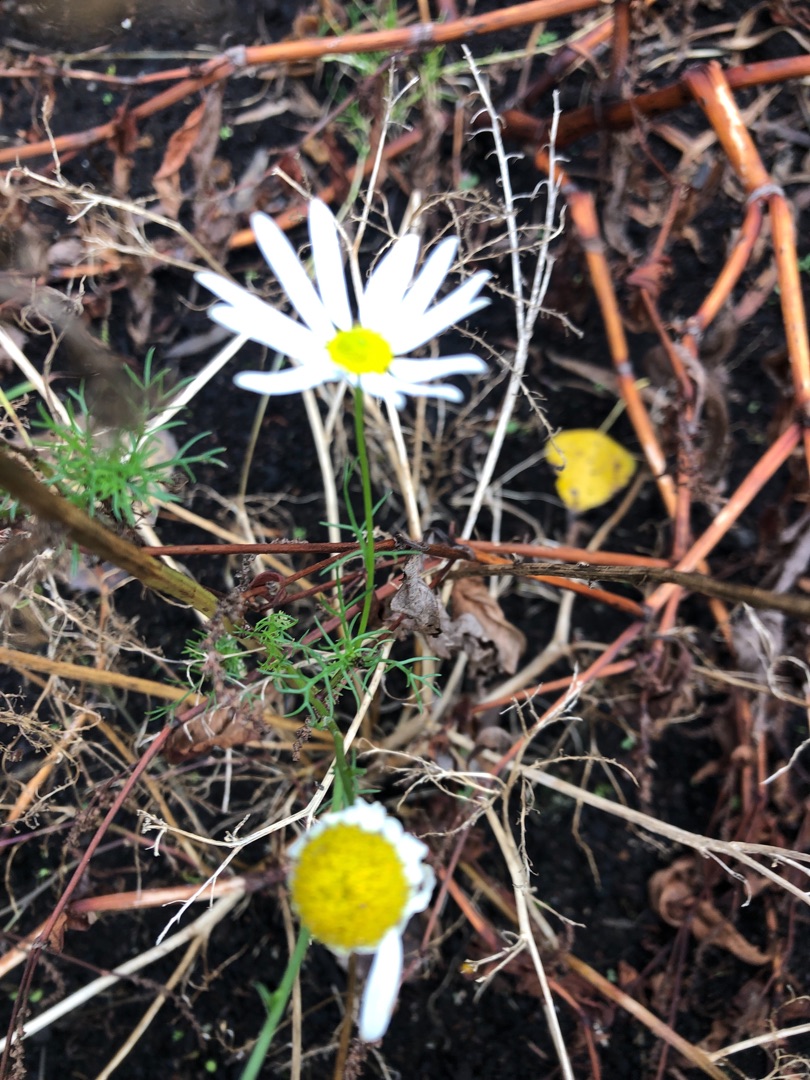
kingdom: Plantae
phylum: Tracheophyta
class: Magnoliopsida
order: Asterales
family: Asteraceae
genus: Tripleurospermum
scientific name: Tripleurospermum inodorum
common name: Lugtløs kamille
